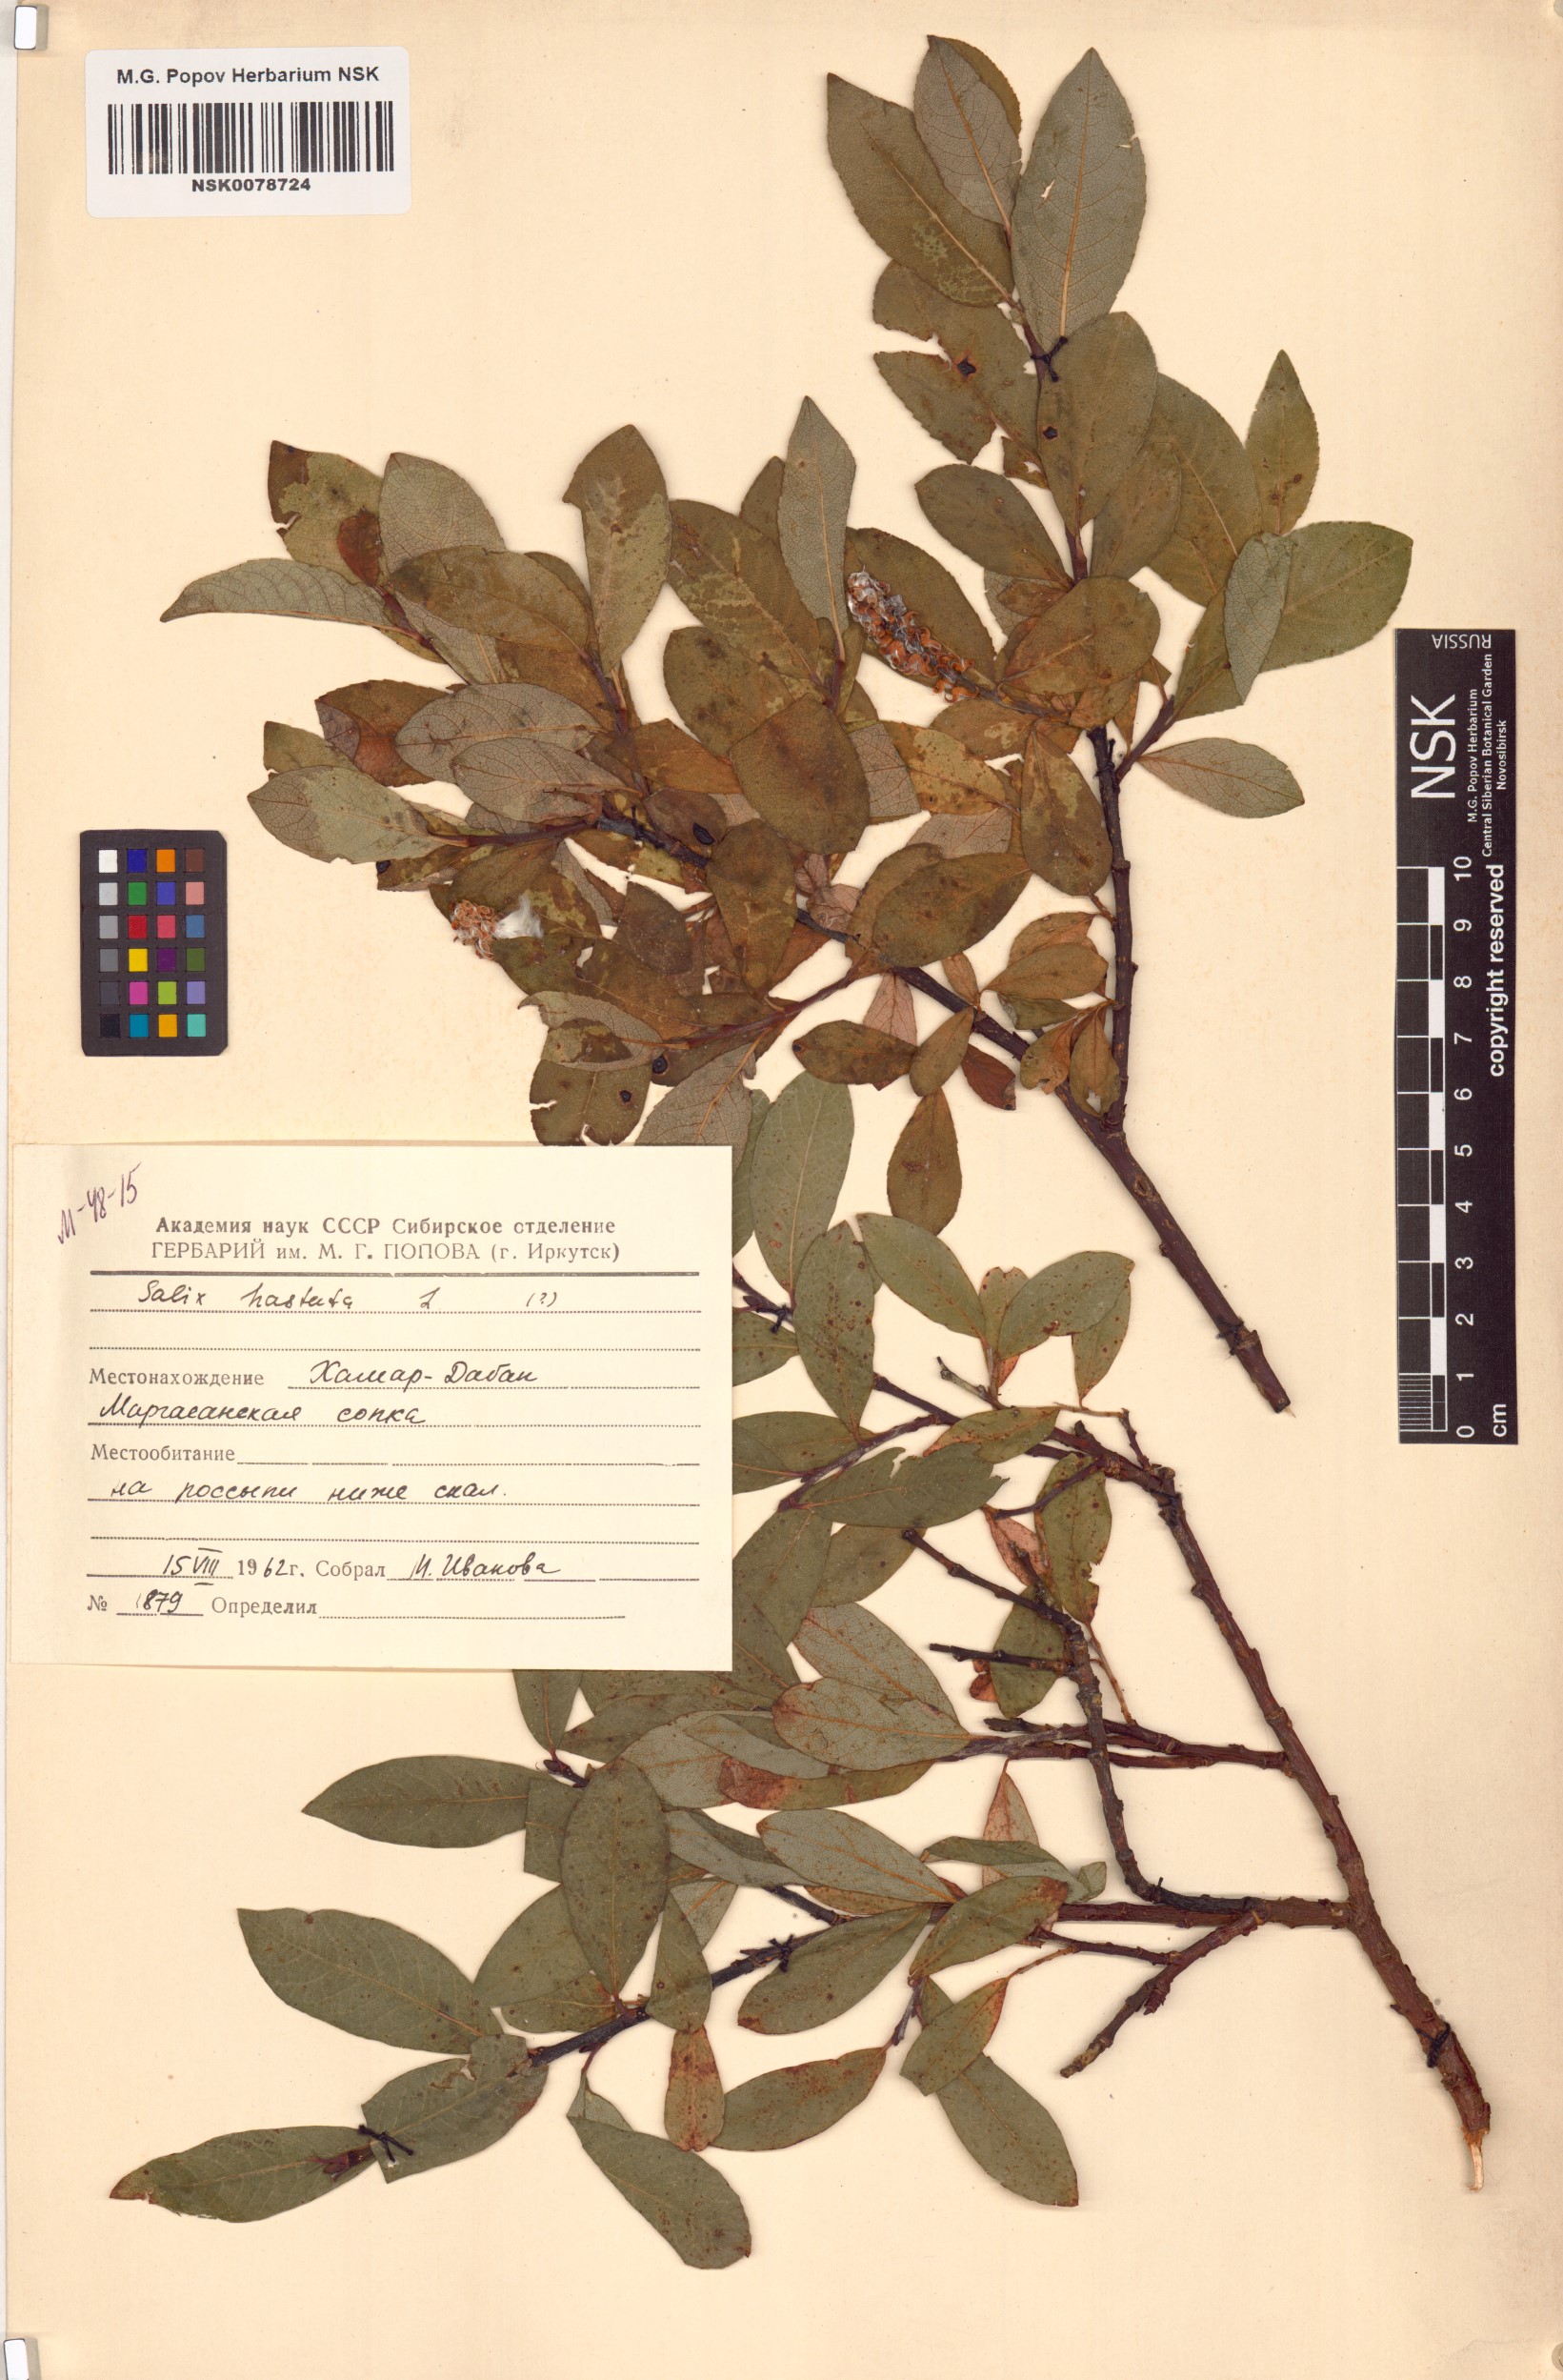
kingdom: Plantae
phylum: Tracheophyta
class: Magnoliopsida
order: Malpighiales
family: Salicaceae
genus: Salix
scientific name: Salix hastata
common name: Halberd willow
